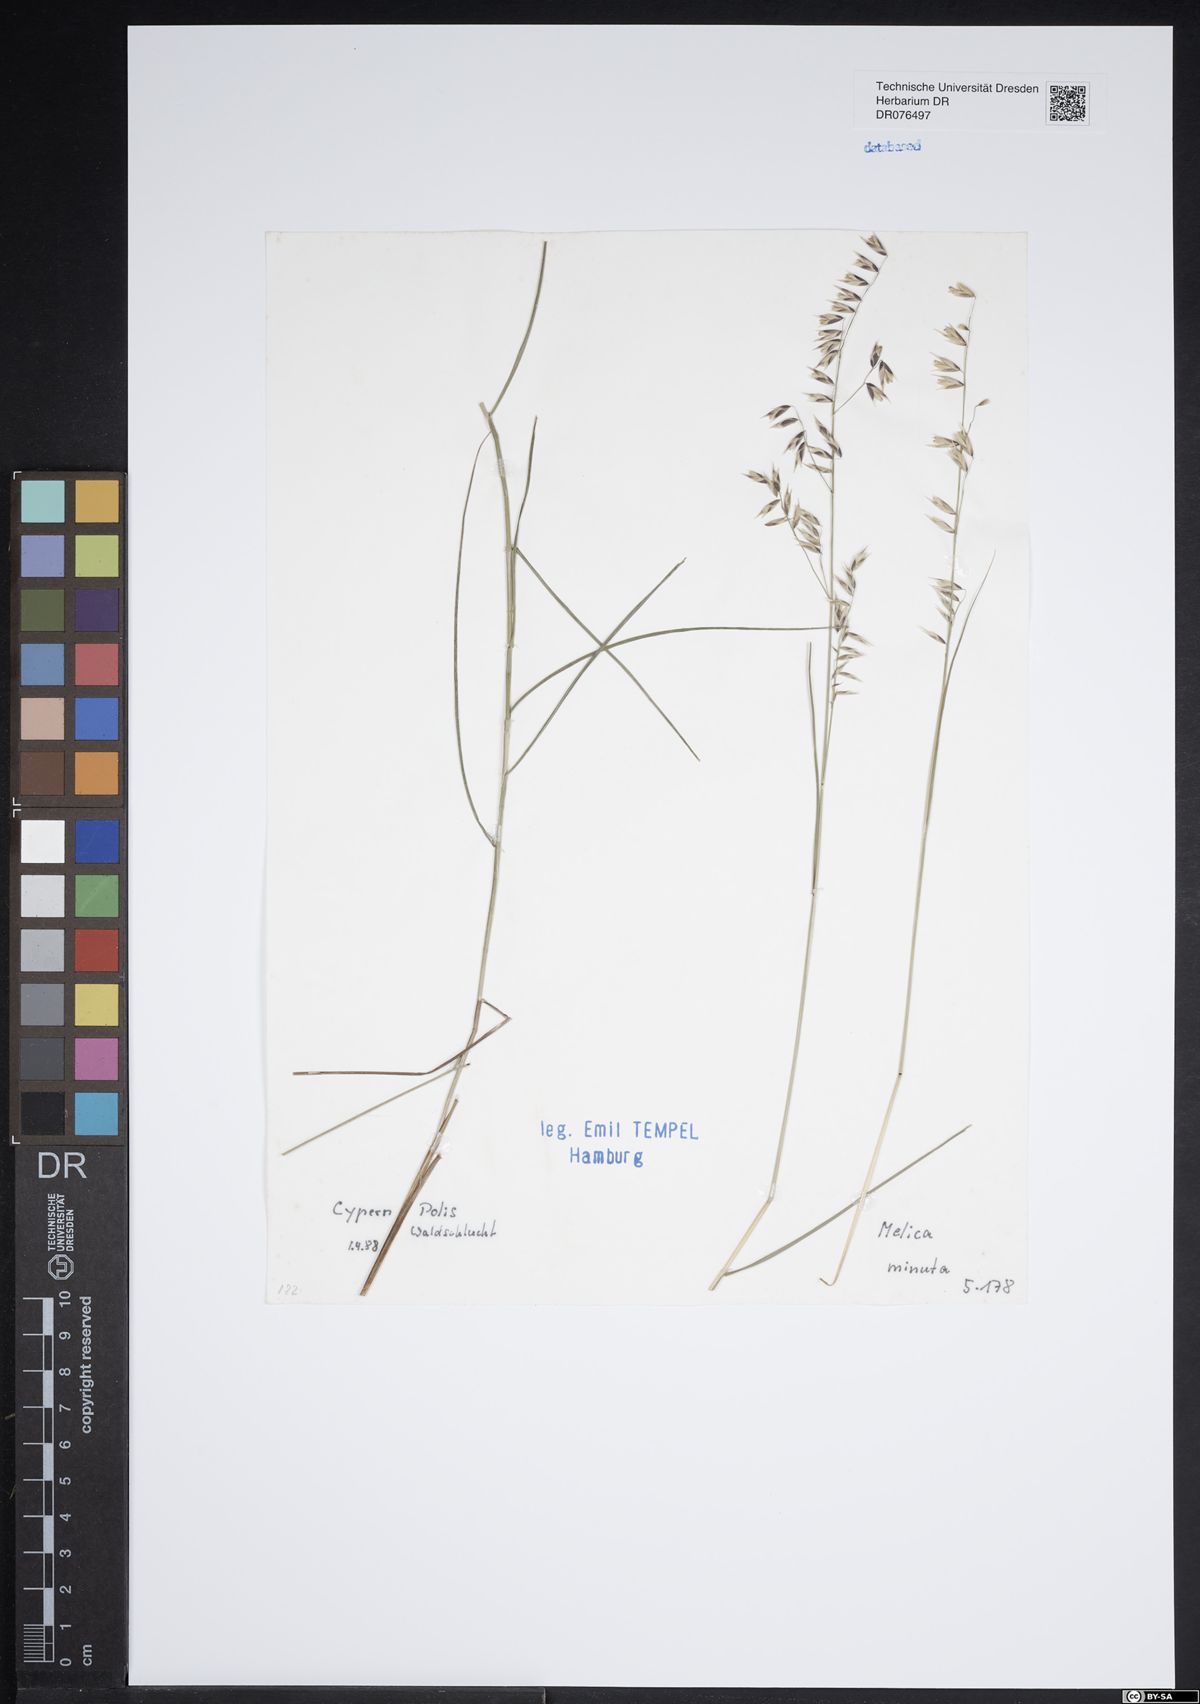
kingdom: Plantae
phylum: Tracheophyta
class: Liliopsida
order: Poales
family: Poaceae
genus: Melica
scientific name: Melica minuta
